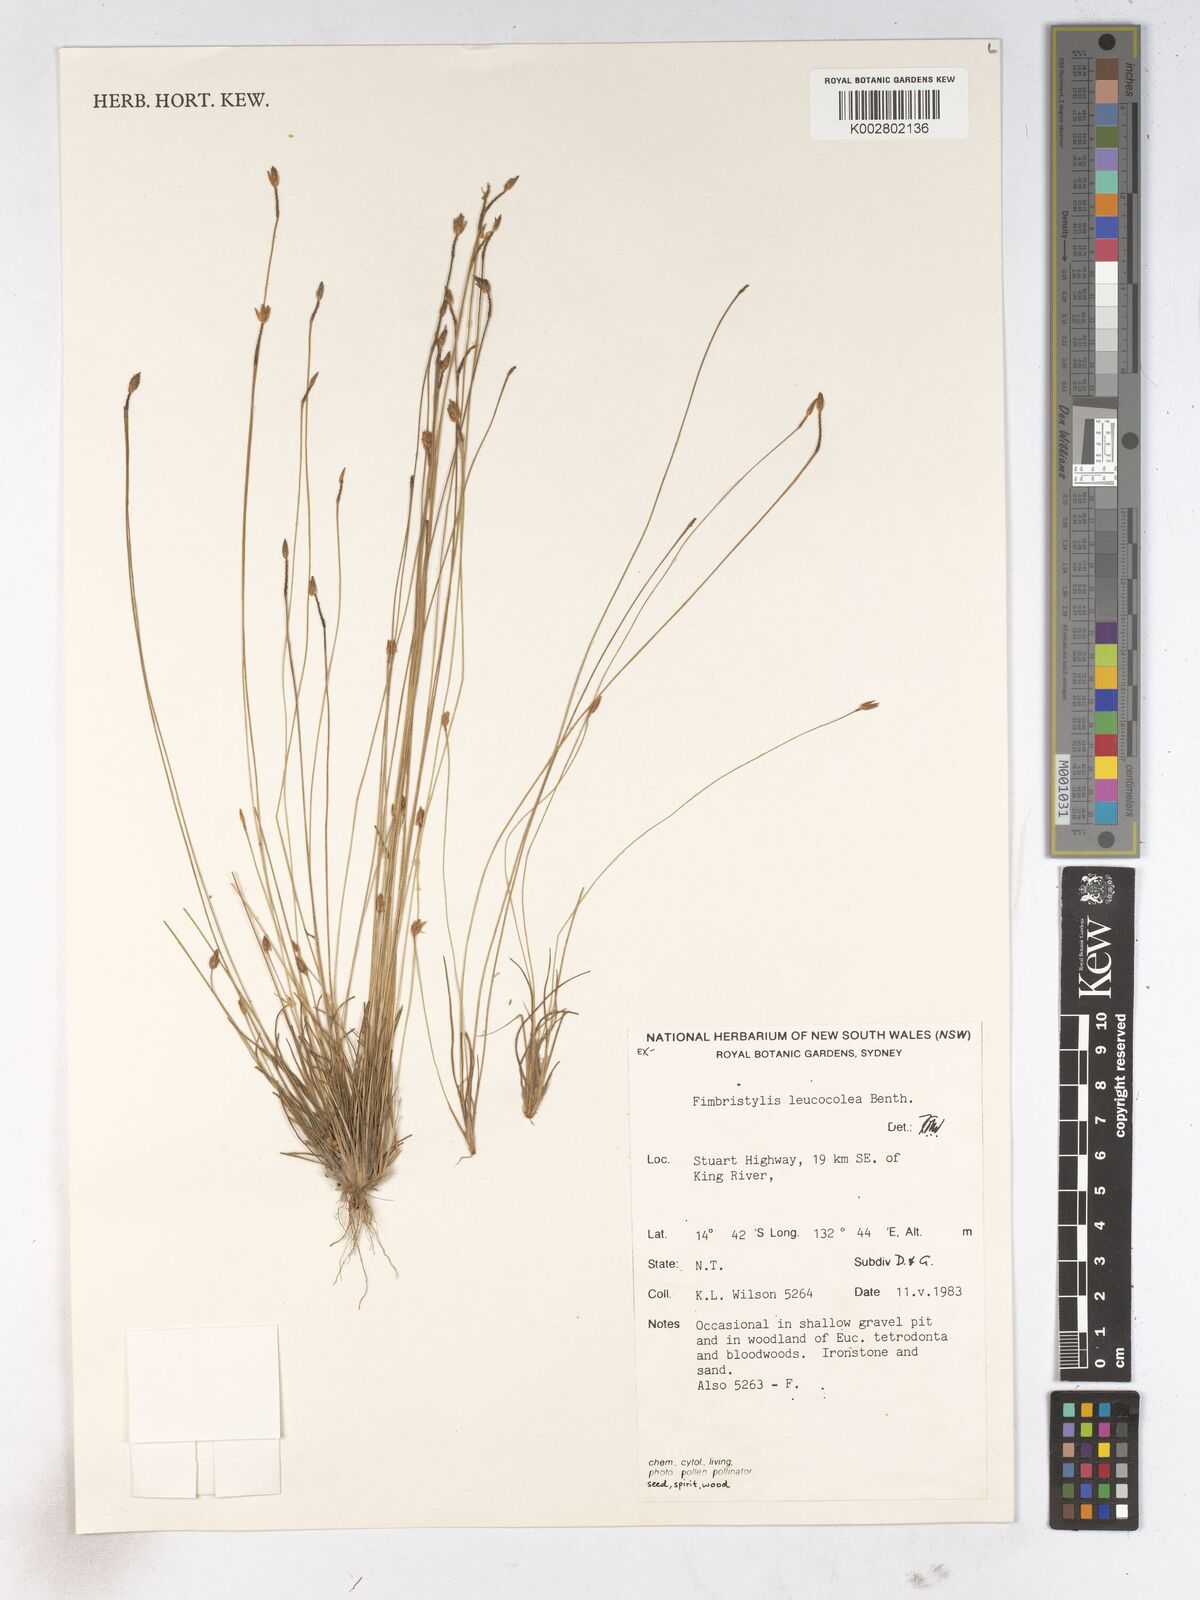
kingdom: Plantae
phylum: Tracheophyta
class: Liliopsida
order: Poales
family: Cyperaceae
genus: Fimbristylis
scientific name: Fimbristylis leucocolea
